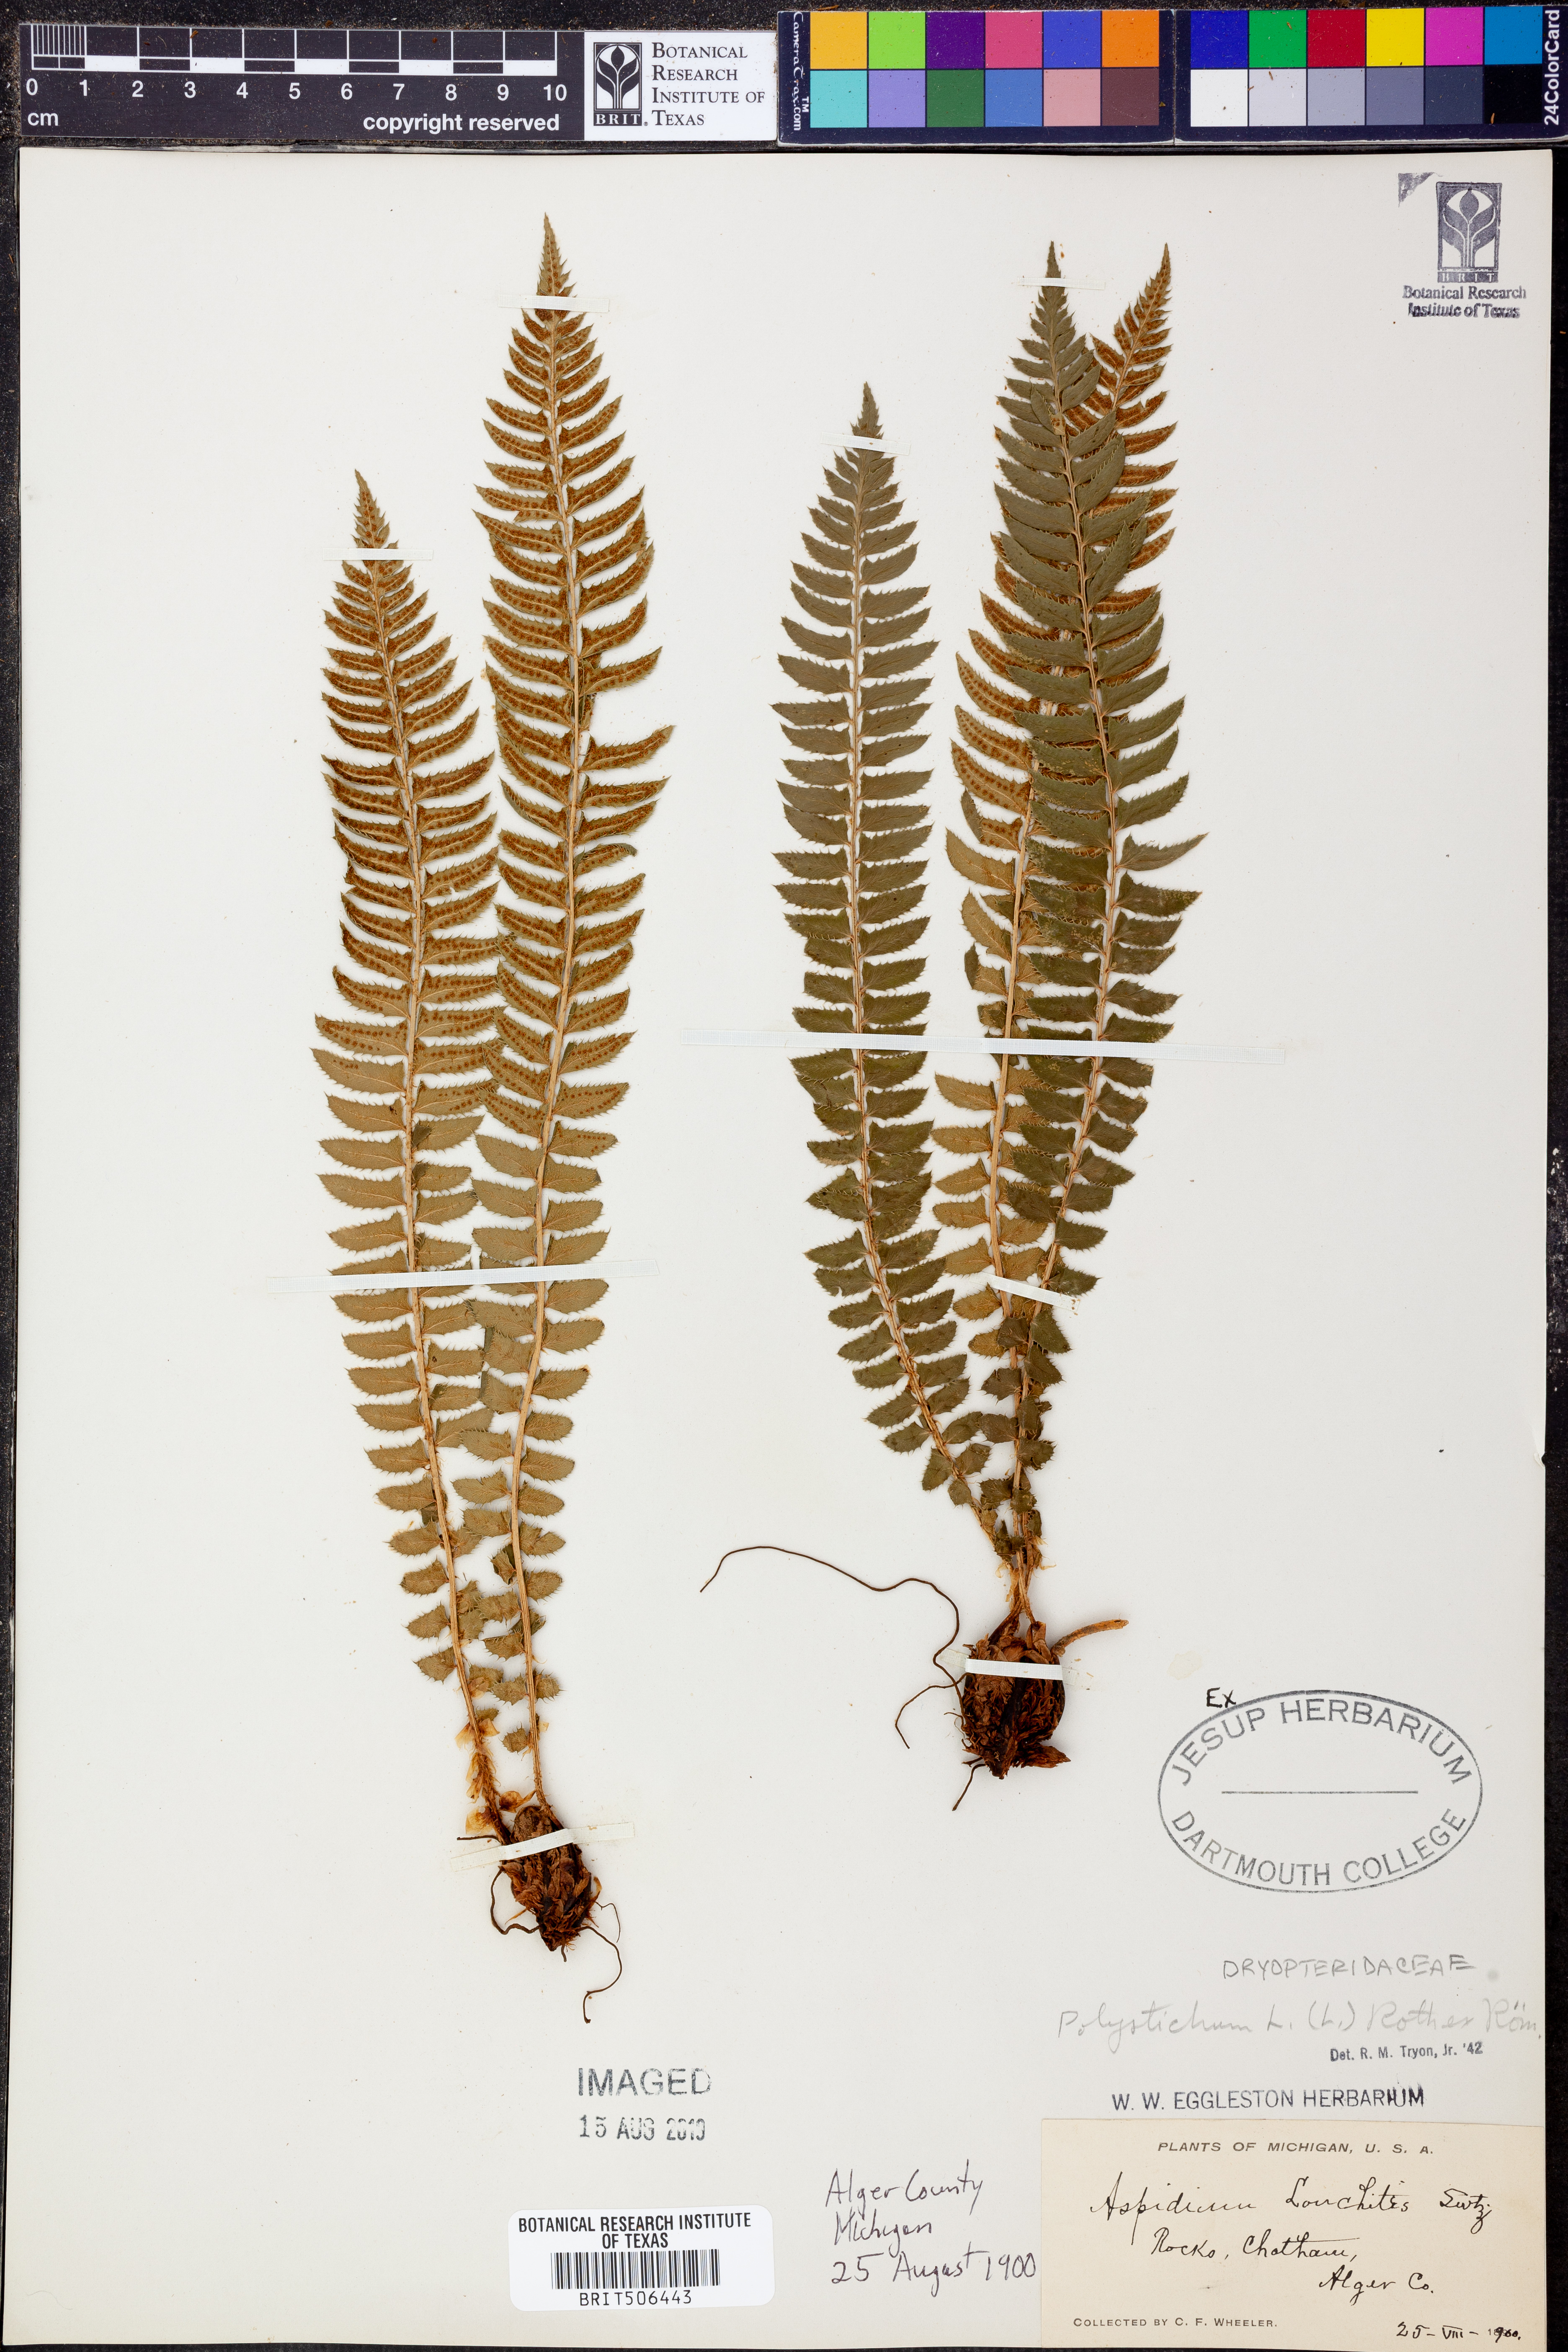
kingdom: Plantae
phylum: Tracheophyta
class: Polypodiopsida
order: Polypodiales
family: Dryopteridaceae
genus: Polystichum
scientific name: Polystichum lonchitis
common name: Holly fern
